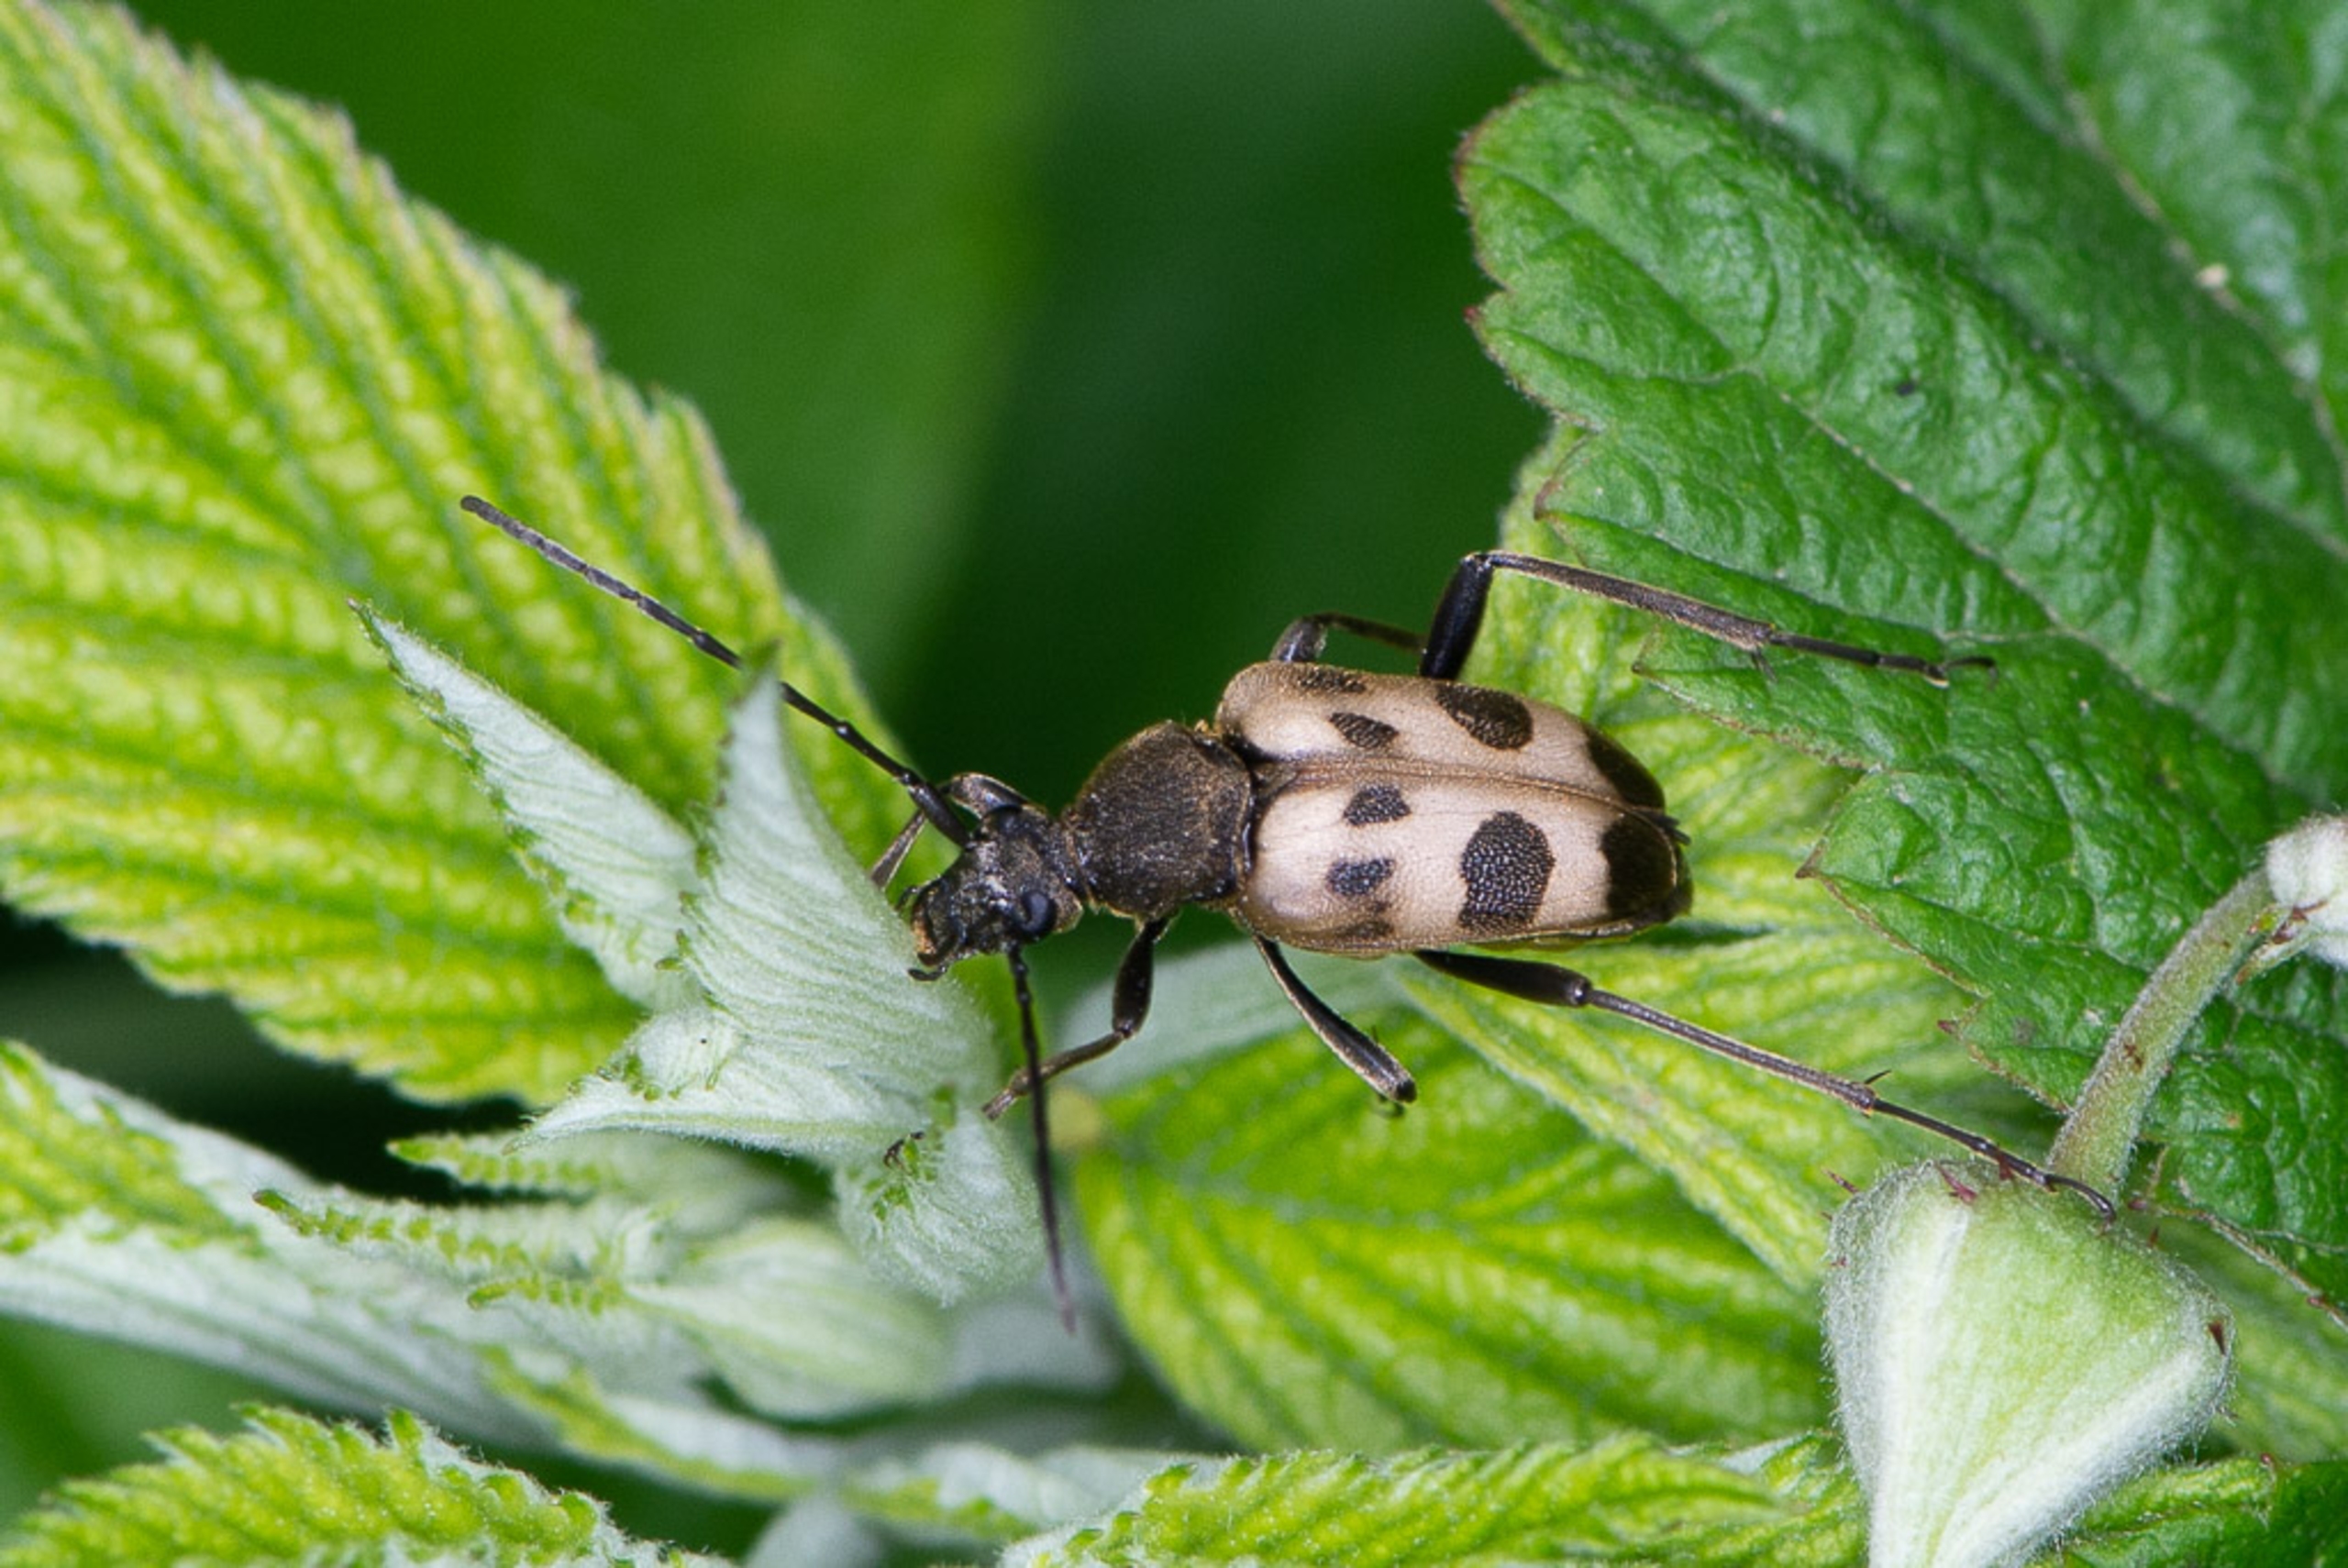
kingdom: Animalia
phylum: Arthropoda
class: Insecta
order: Coleoptera
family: Cerambycidae
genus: Pachytodes
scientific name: Pachytodes cerambyciformis
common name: Jysk blomsterbuk
